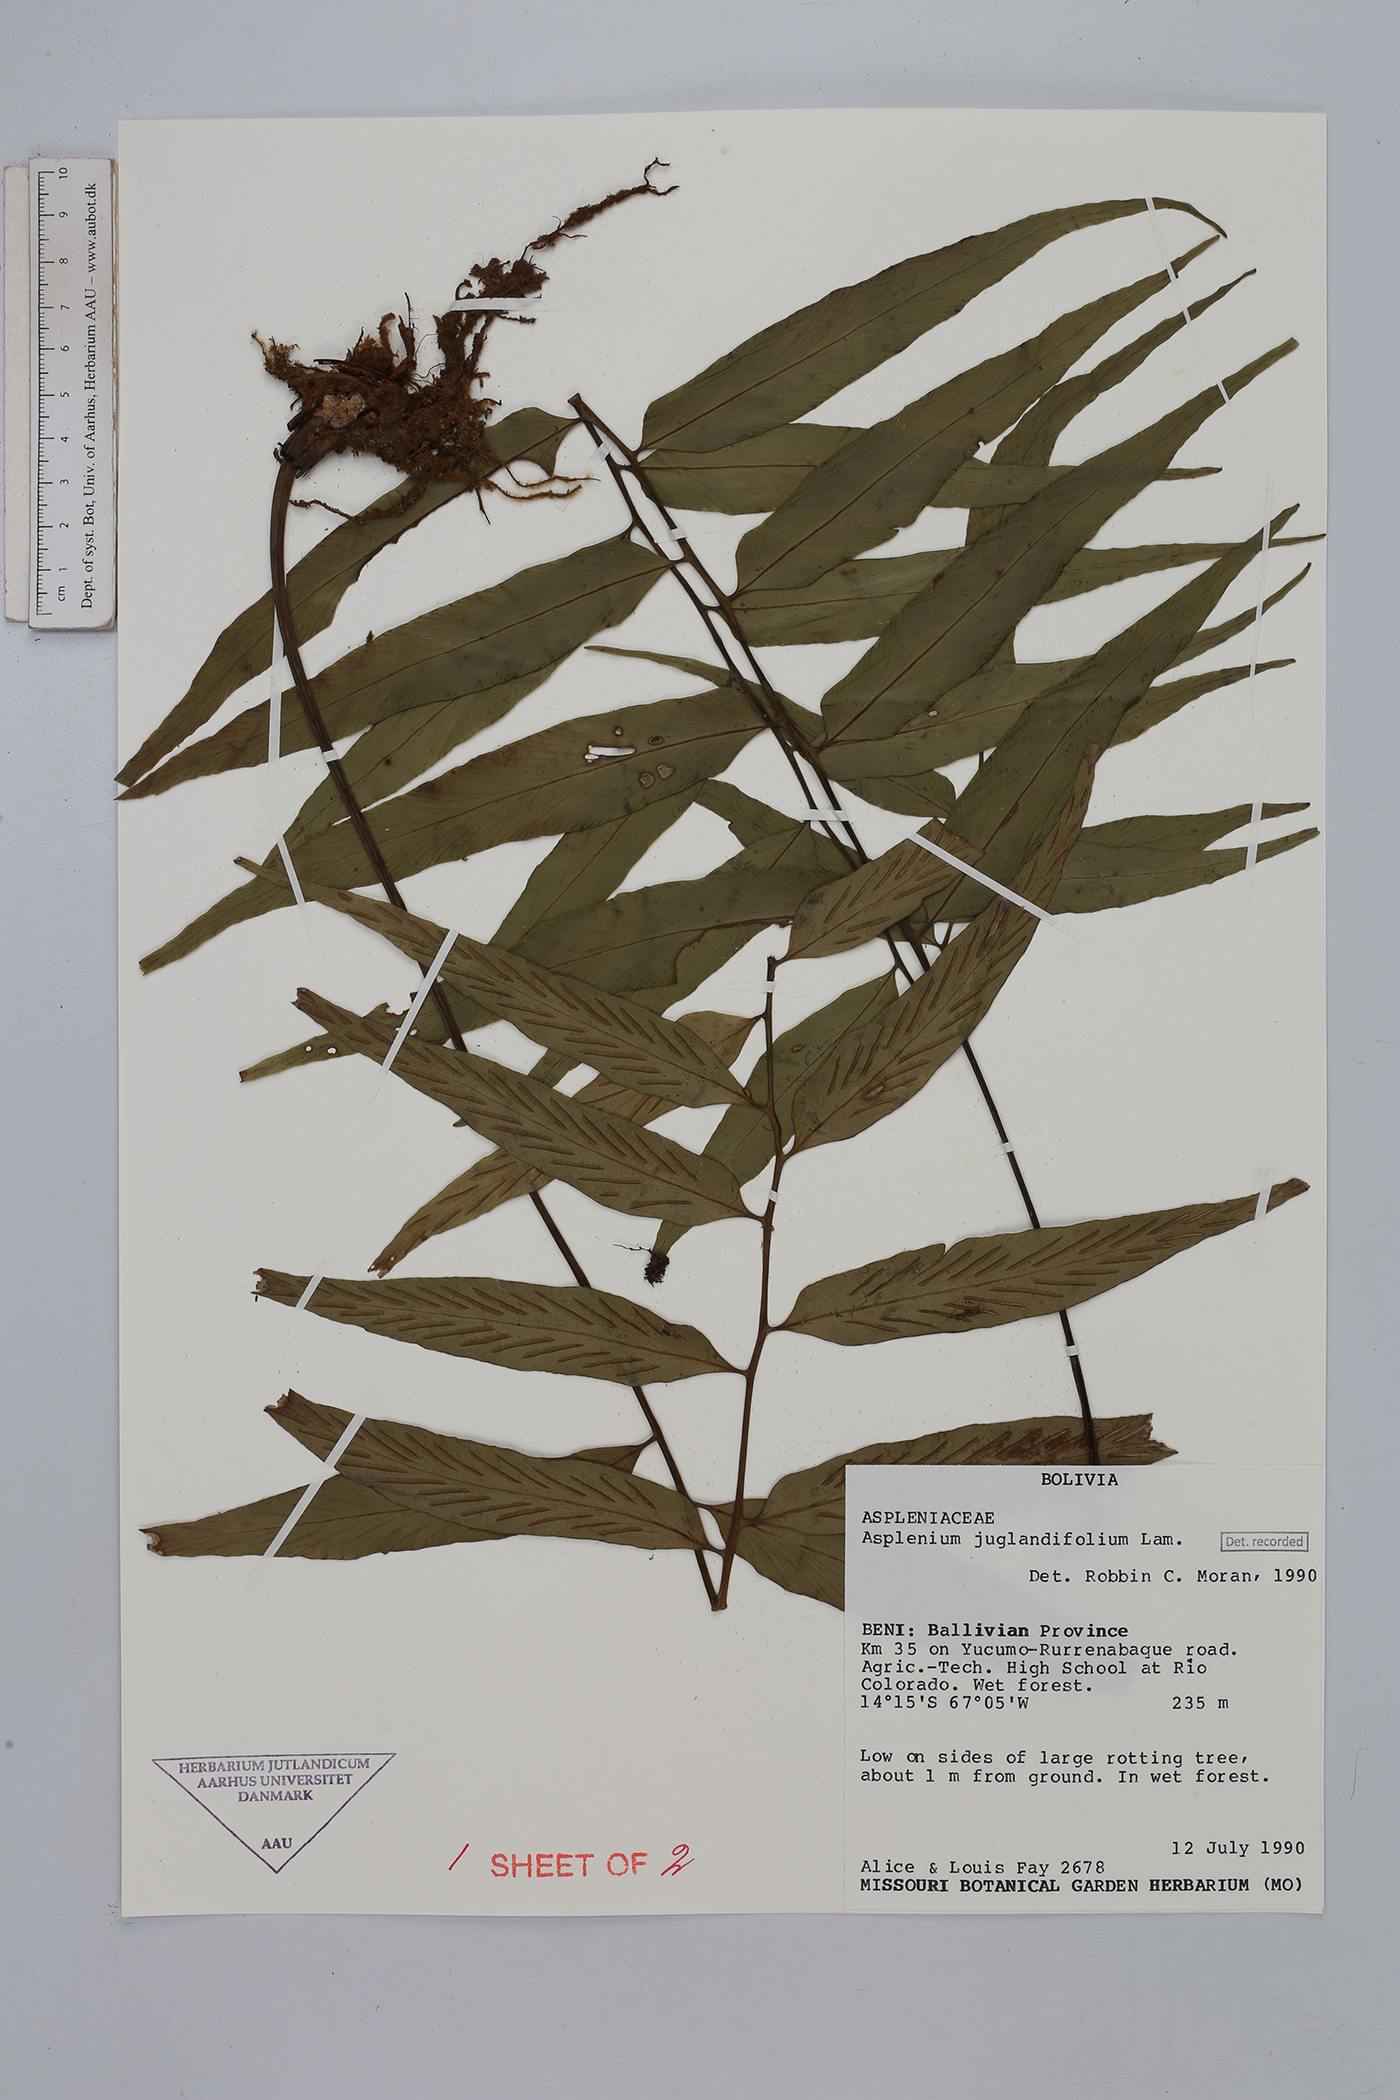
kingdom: Plantae
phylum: Tracheophyta
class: Polypodiopsida
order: Polypodiales
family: Aspleniaceae
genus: Asplenium
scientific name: Asplenium juglandifolium
